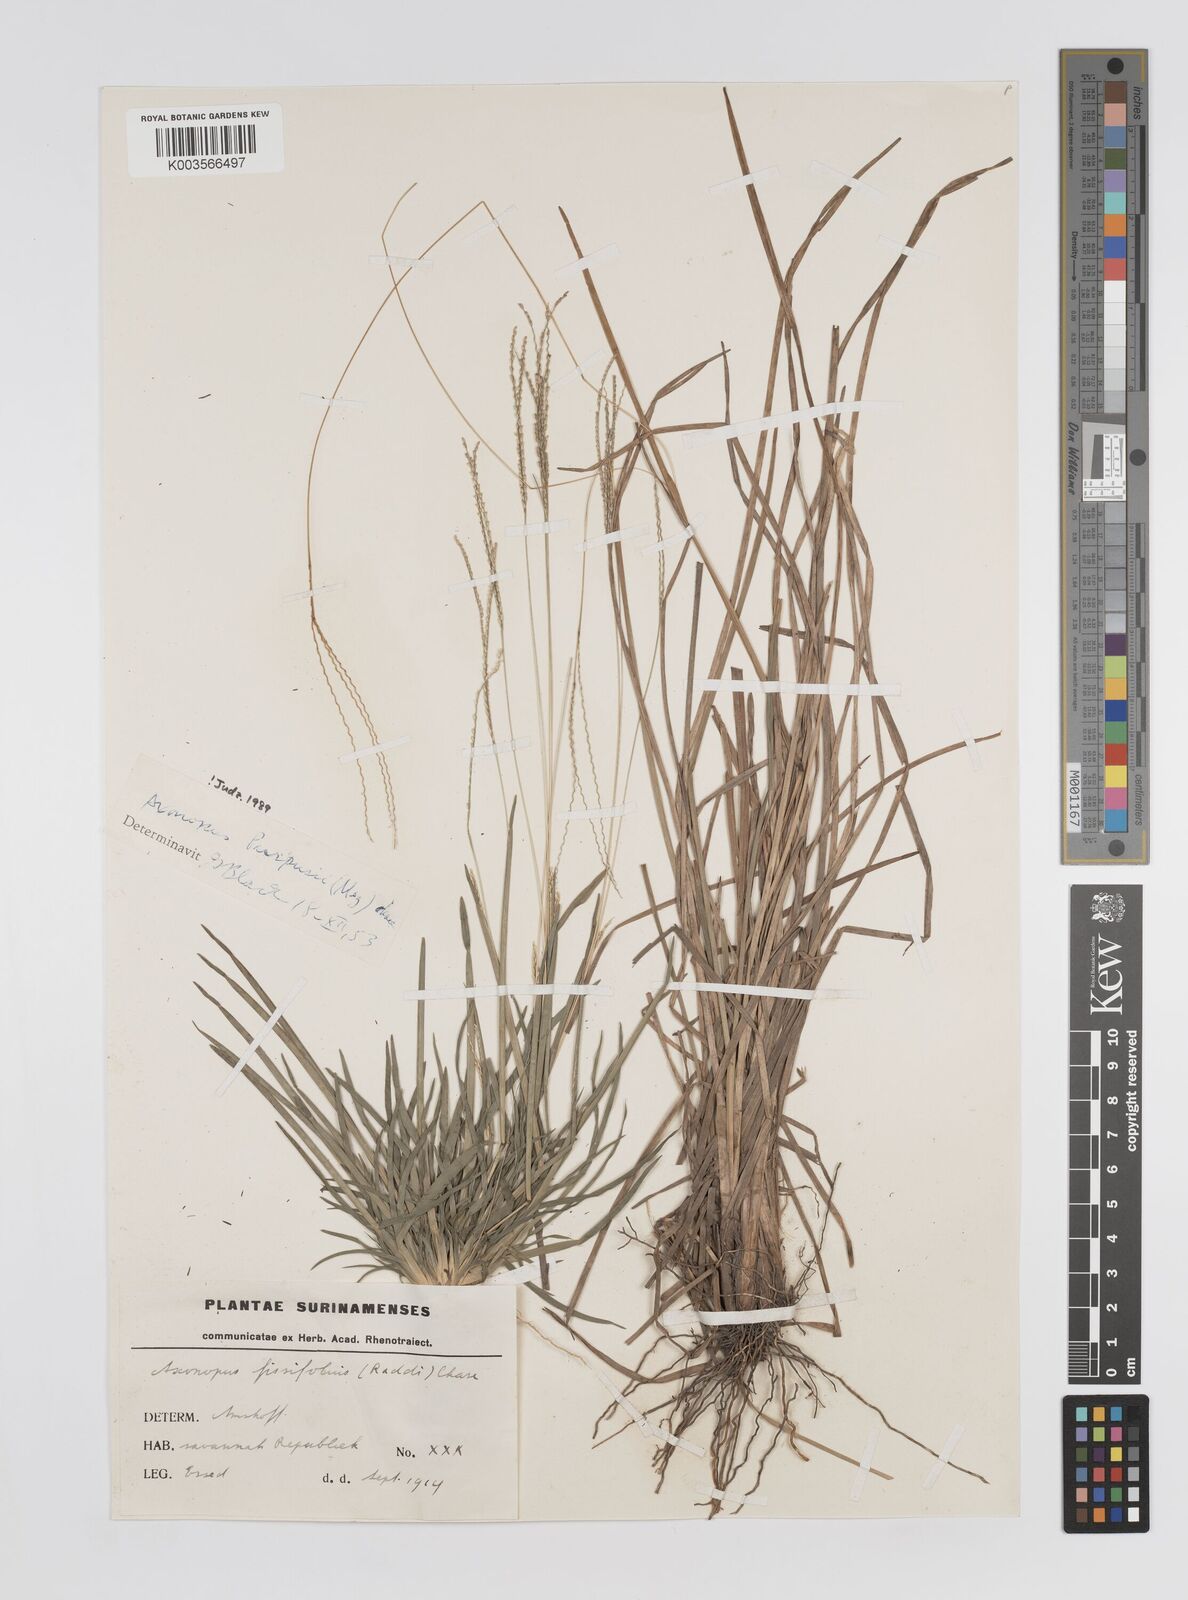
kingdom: Plantae
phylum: Tracheophyta
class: Liliopsida
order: Poales
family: Poaceae
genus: Axonopus
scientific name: Axonopus purpusii
